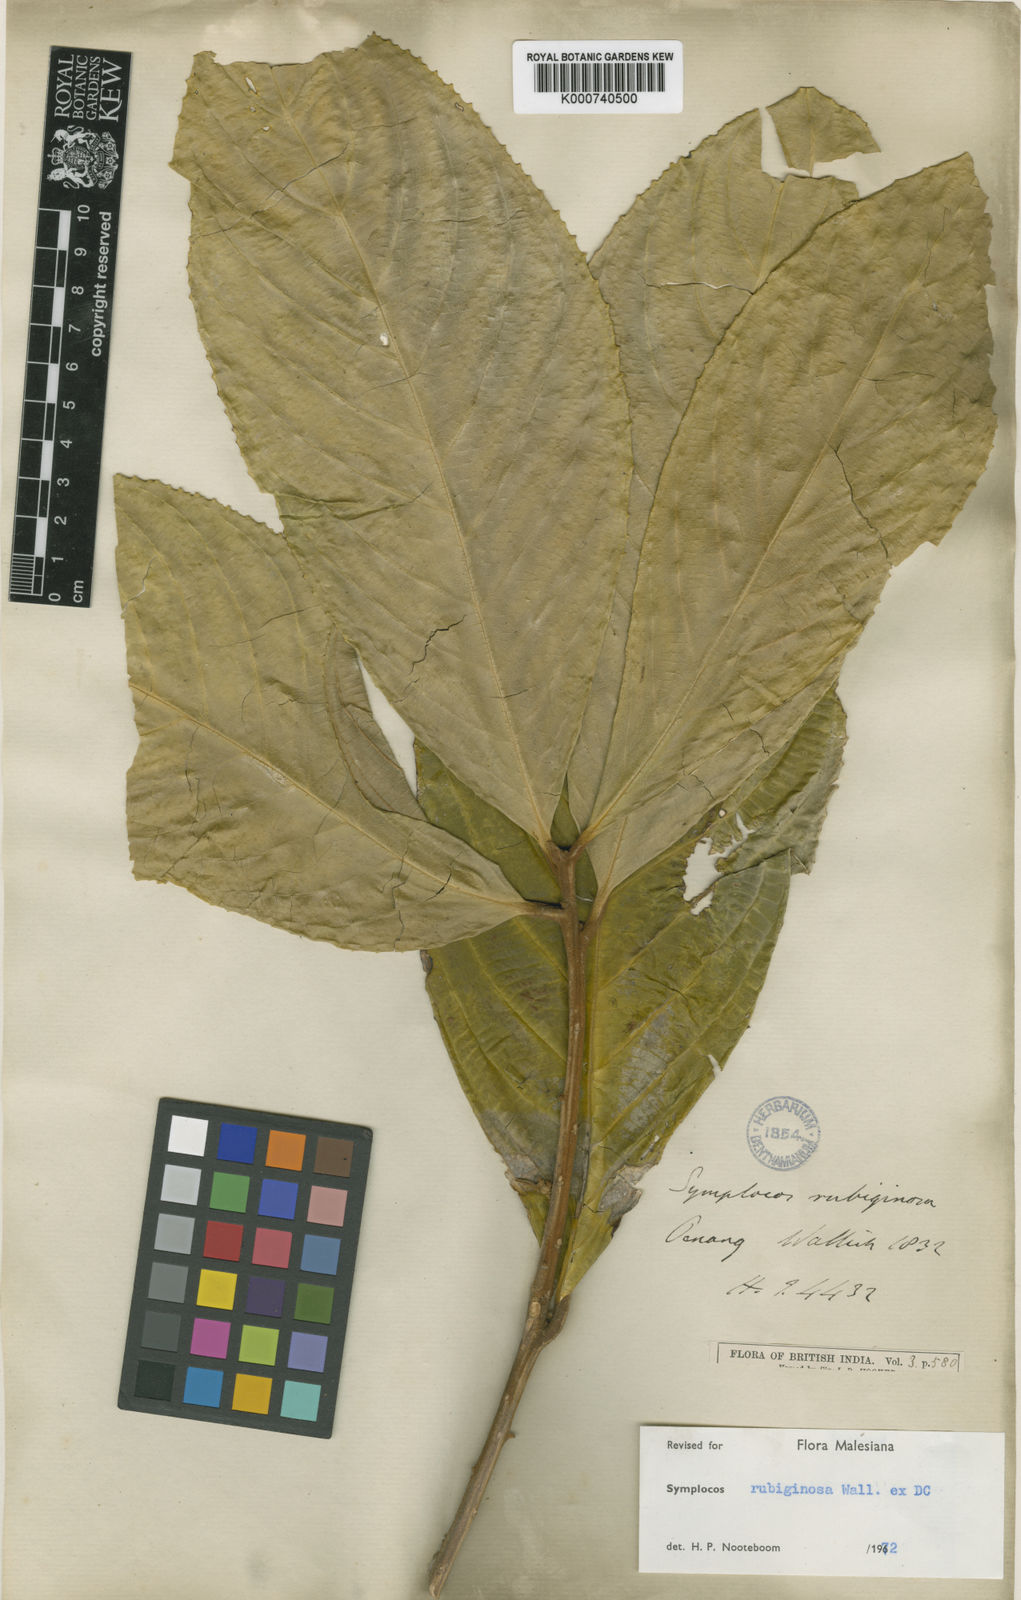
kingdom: Plantae
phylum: Tracheophyta
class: Magnoliopsida
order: Ericales
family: Symplocaceae
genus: Symplocos
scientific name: Symplocos rubiginosa
